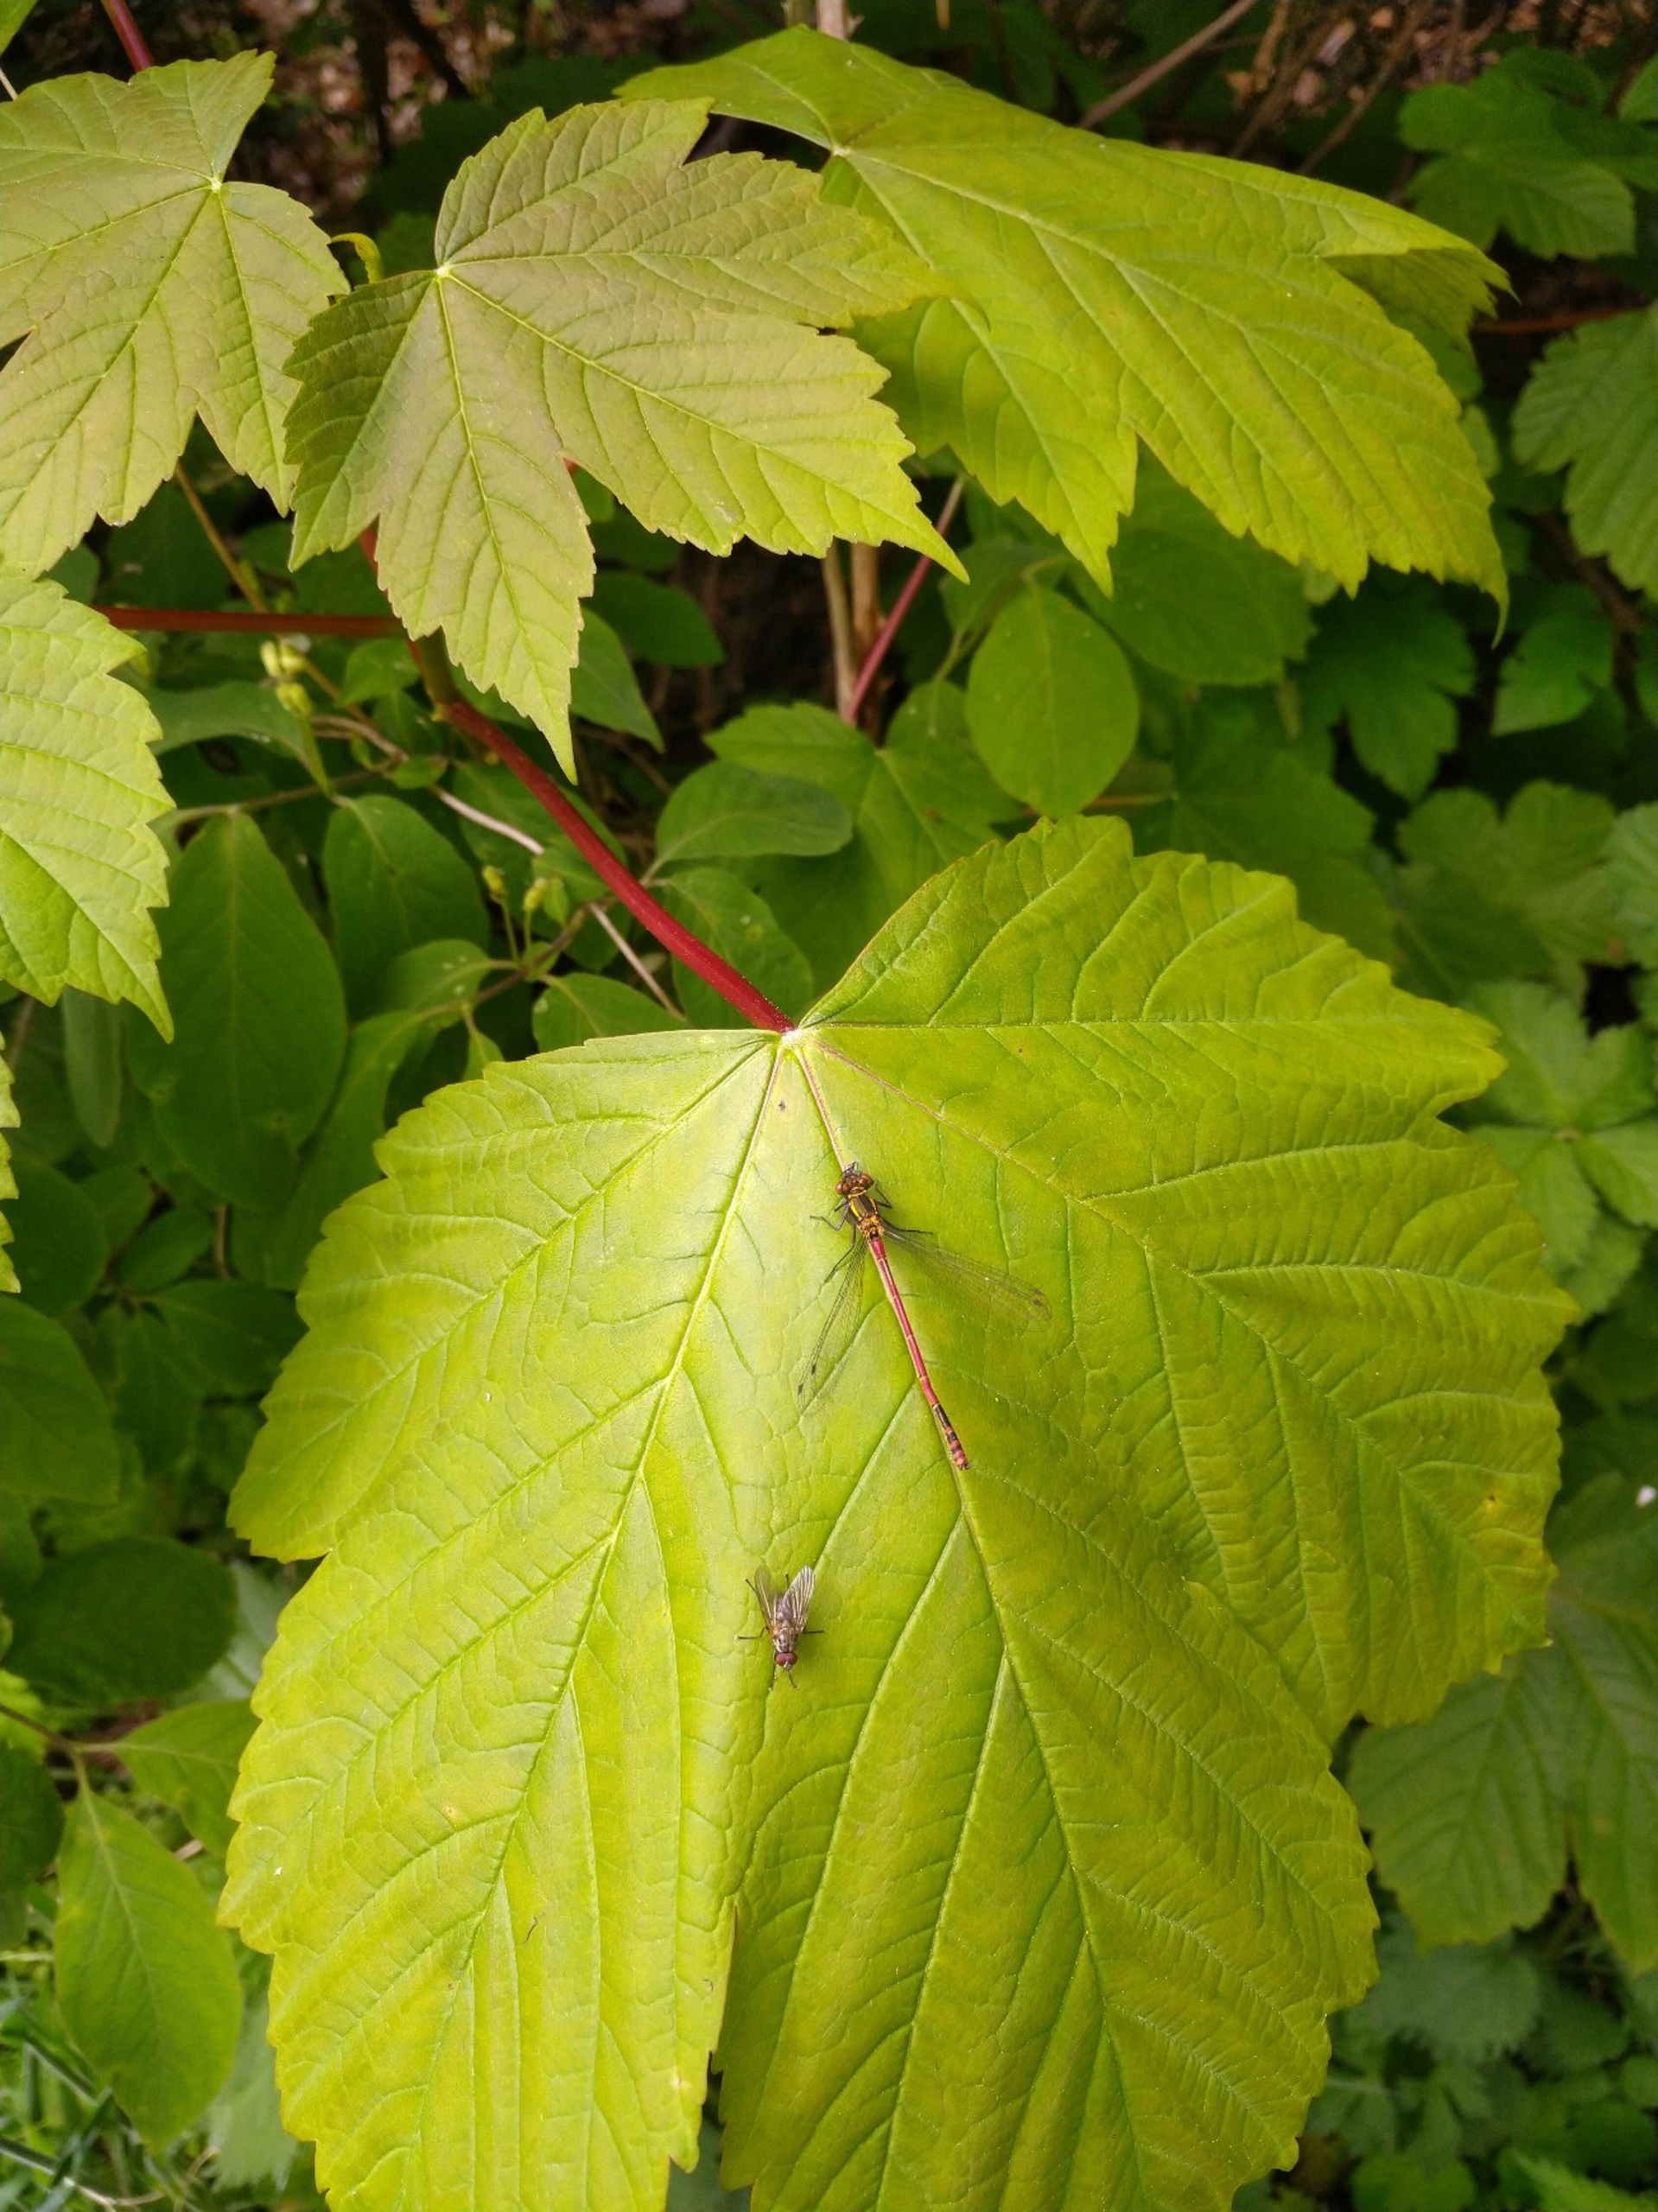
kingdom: Animalia
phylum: Arthropoda
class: Insecta
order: Odonata
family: Coenagrionidae
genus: Pyrrhosoma
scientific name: Pyrrhosoma nymphula
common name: Rød vandnymfe
